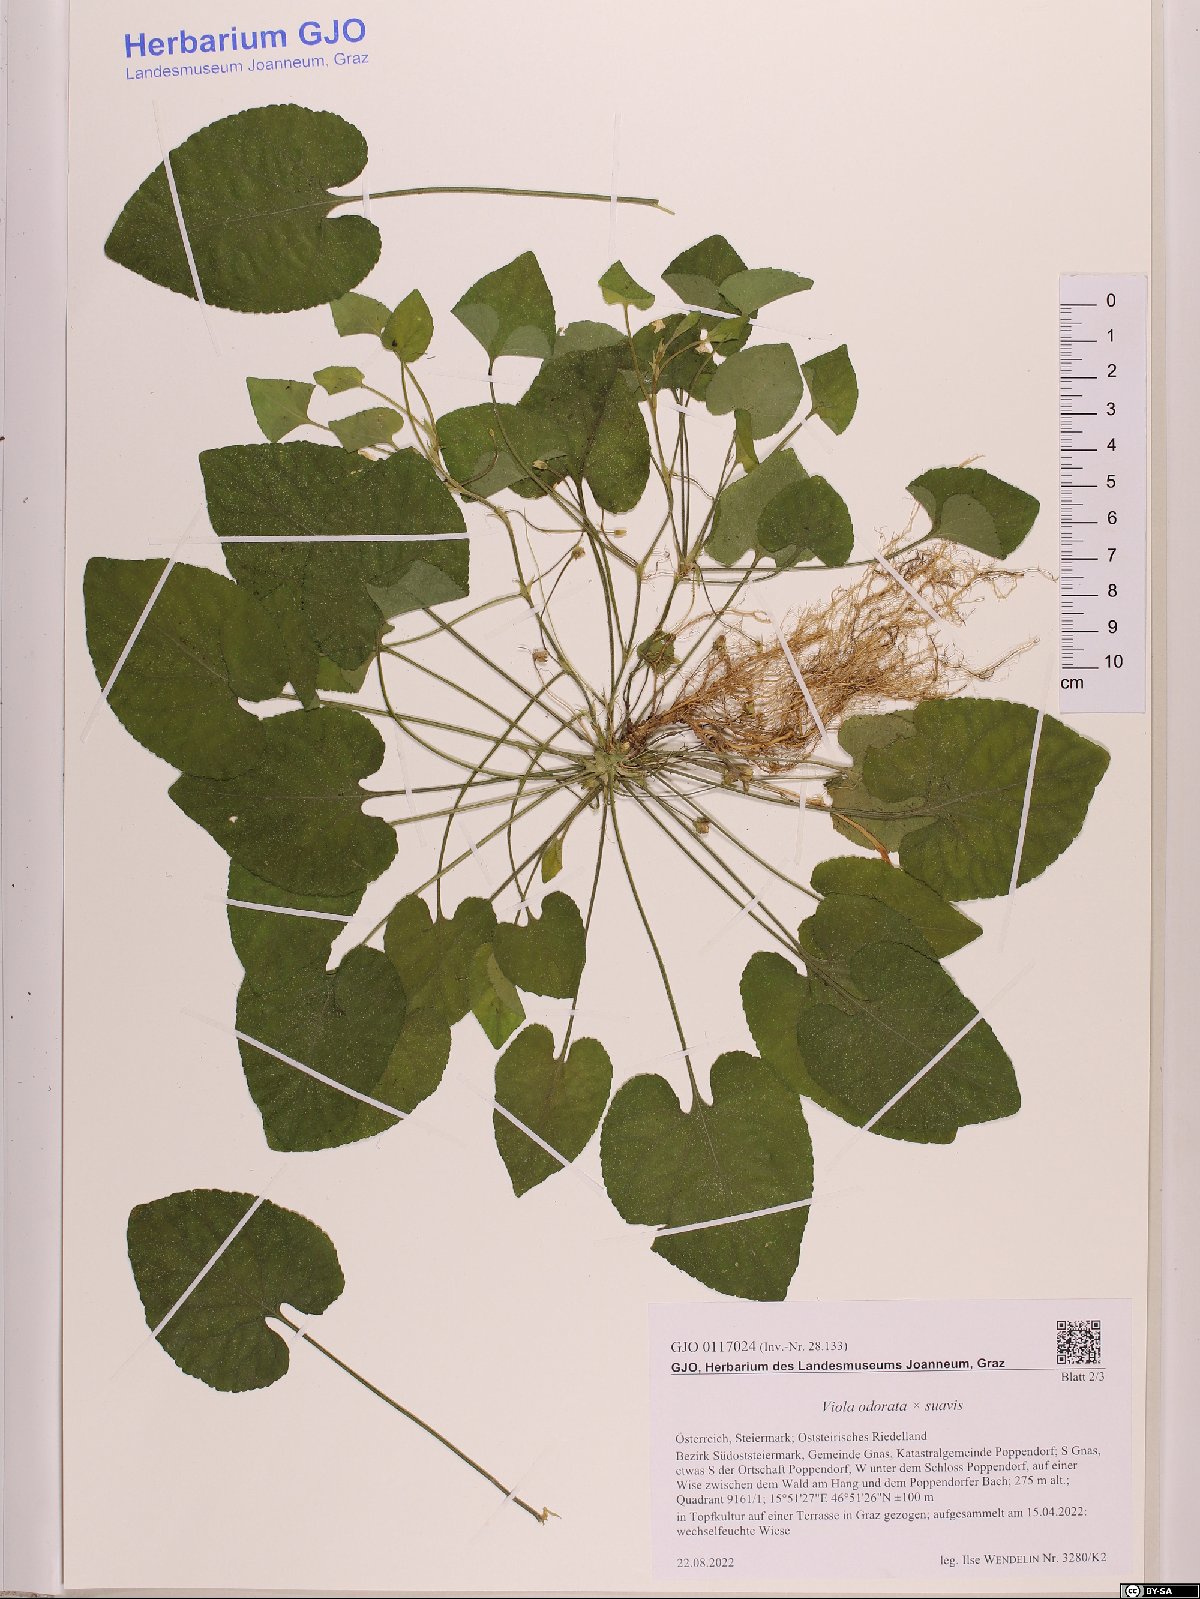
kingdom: Plantae
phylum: Tracheophyta
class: Magnoliopsida
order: Malpighiales
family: Violaceae
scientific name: Violaceae
